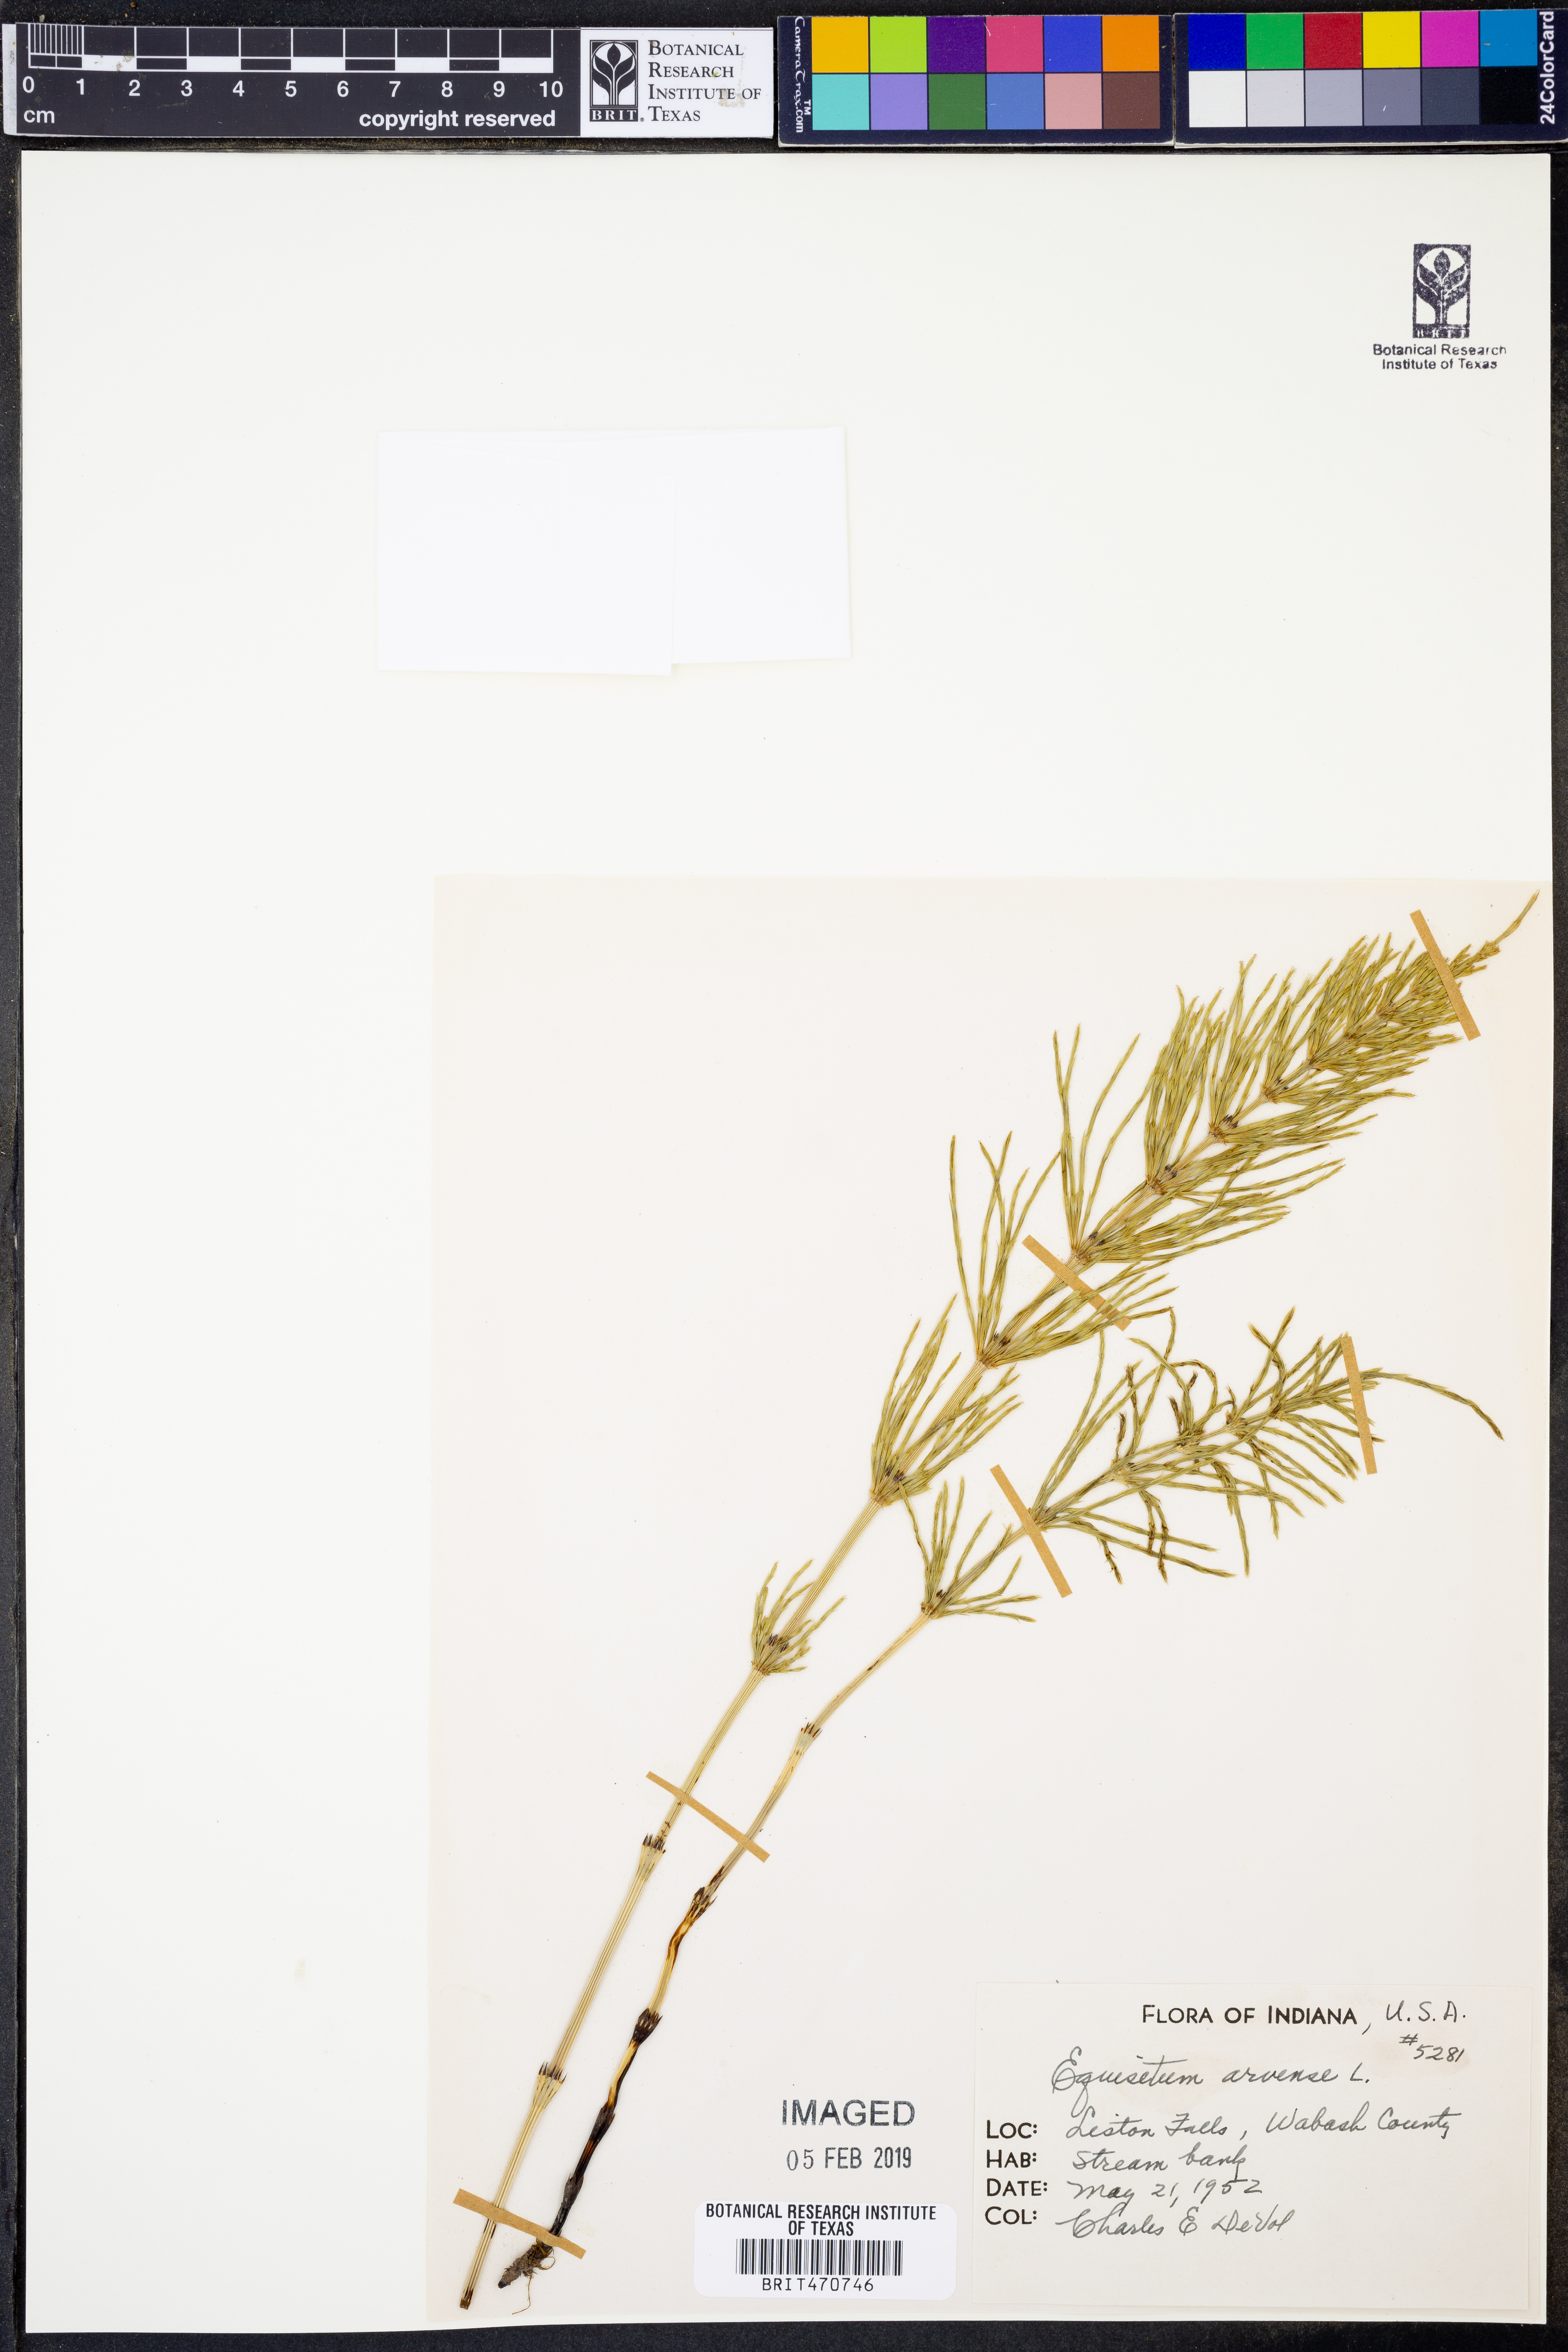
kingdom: Plantae
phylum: Tracheophyta
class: Polypodiopsida
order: Equisetales
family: Equisetaceae
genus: Equisetum
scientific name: Equisetum arvense
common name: Field horsetail
